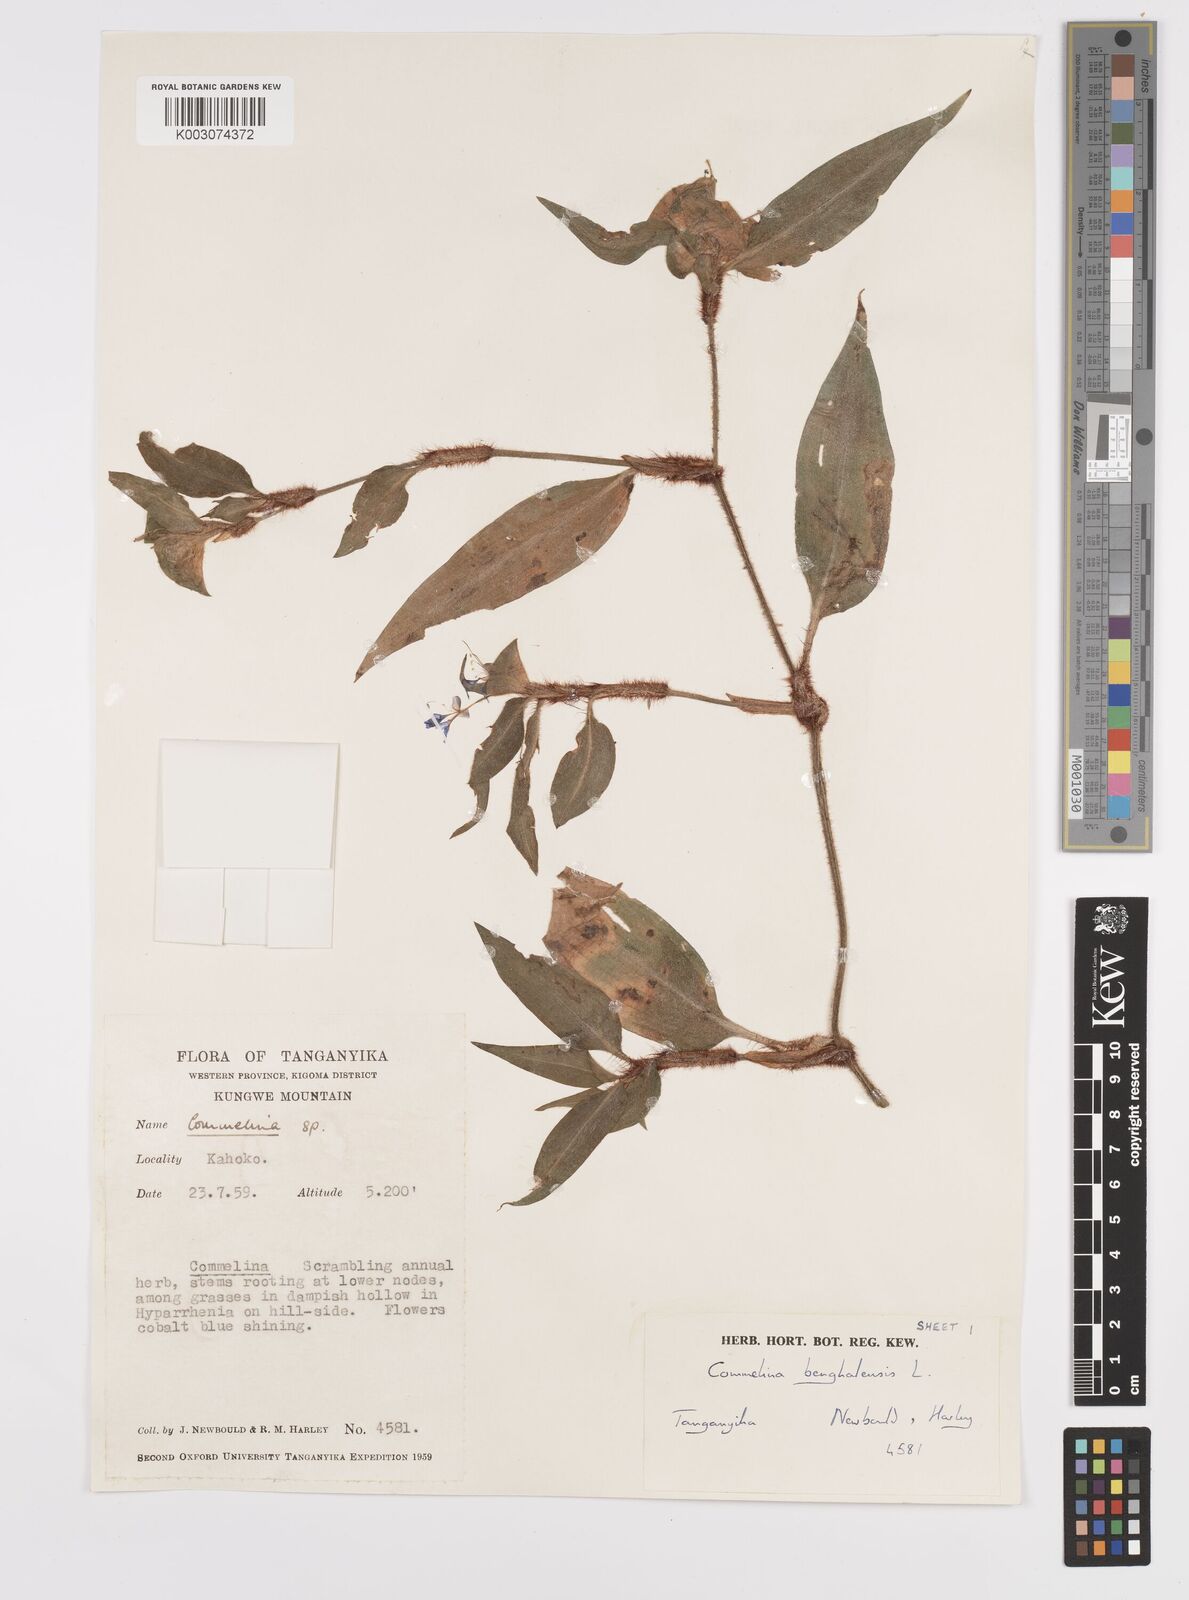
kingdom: Plantae
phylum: Tracheophyta
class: Liliopsida
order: Commelinales
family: Commelinaceae
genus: Commelina
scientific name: Commelina benghalensis
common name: Jio
